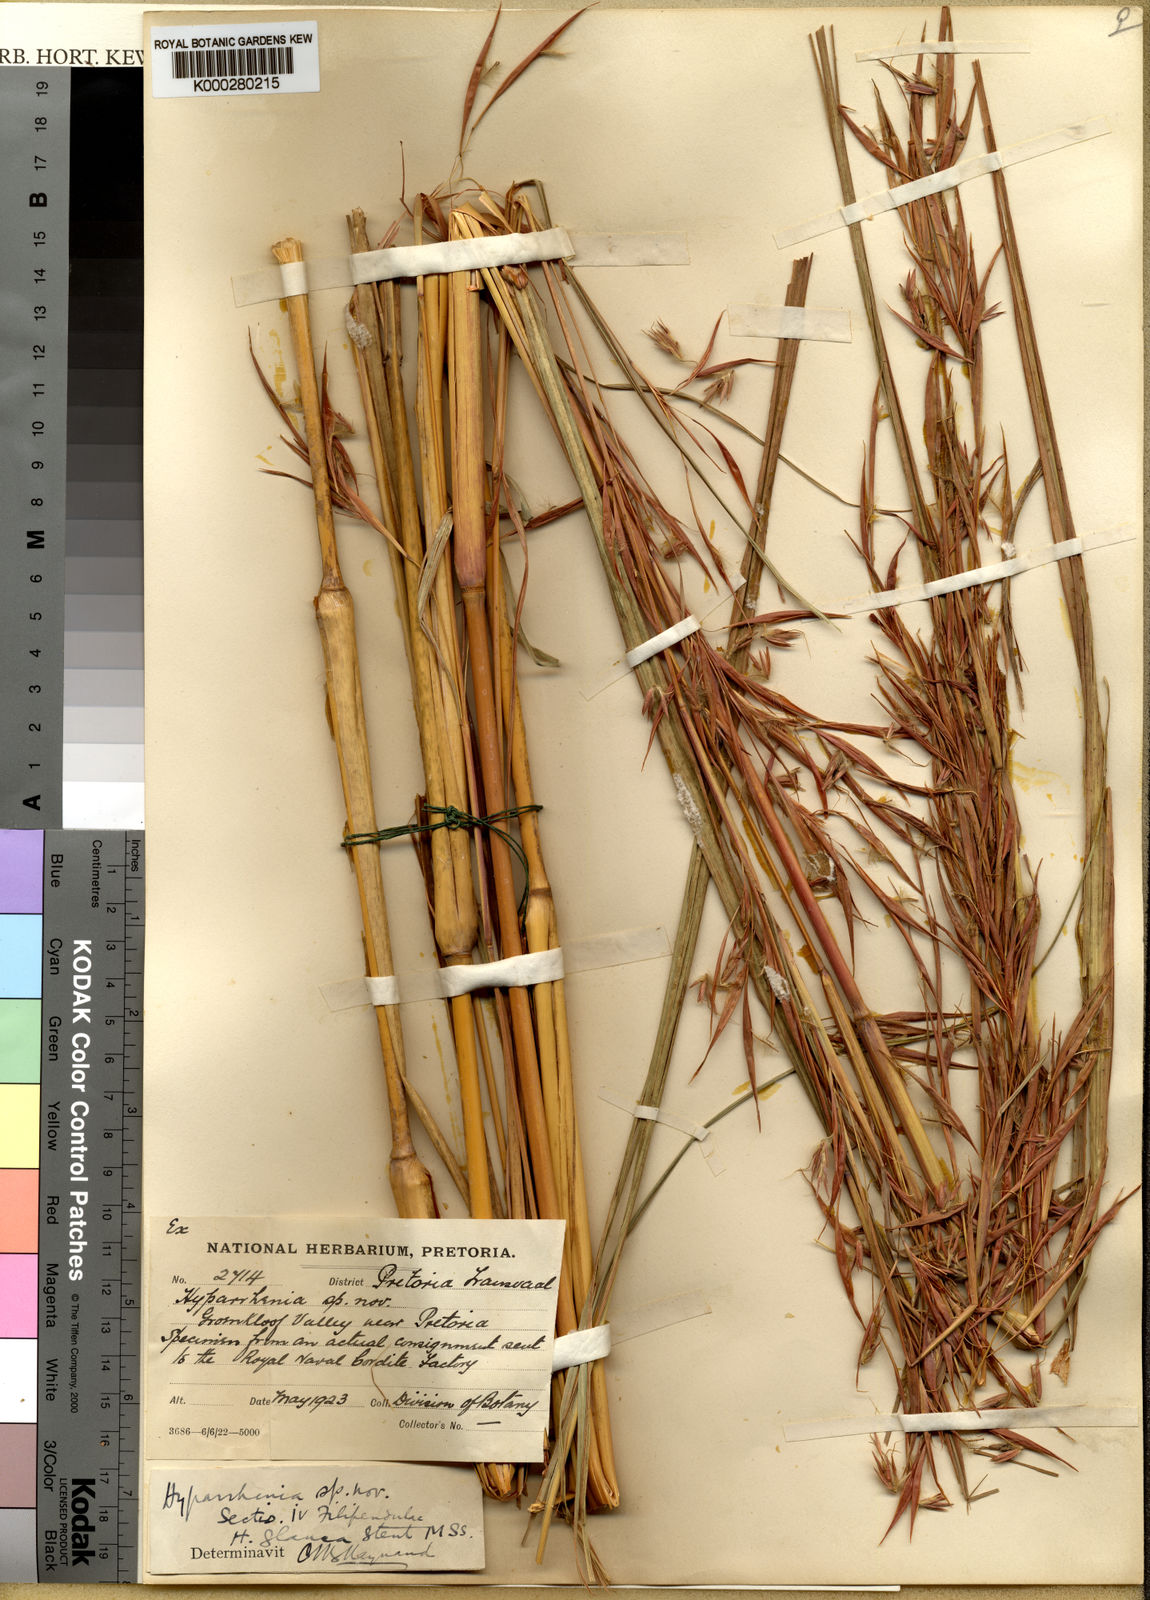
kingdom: Plantae
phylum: Tracheophyta
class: Liliopsida
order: Poales
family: Poaceae
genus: Hyparrhenia
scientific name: Hyparrhenia tamba
